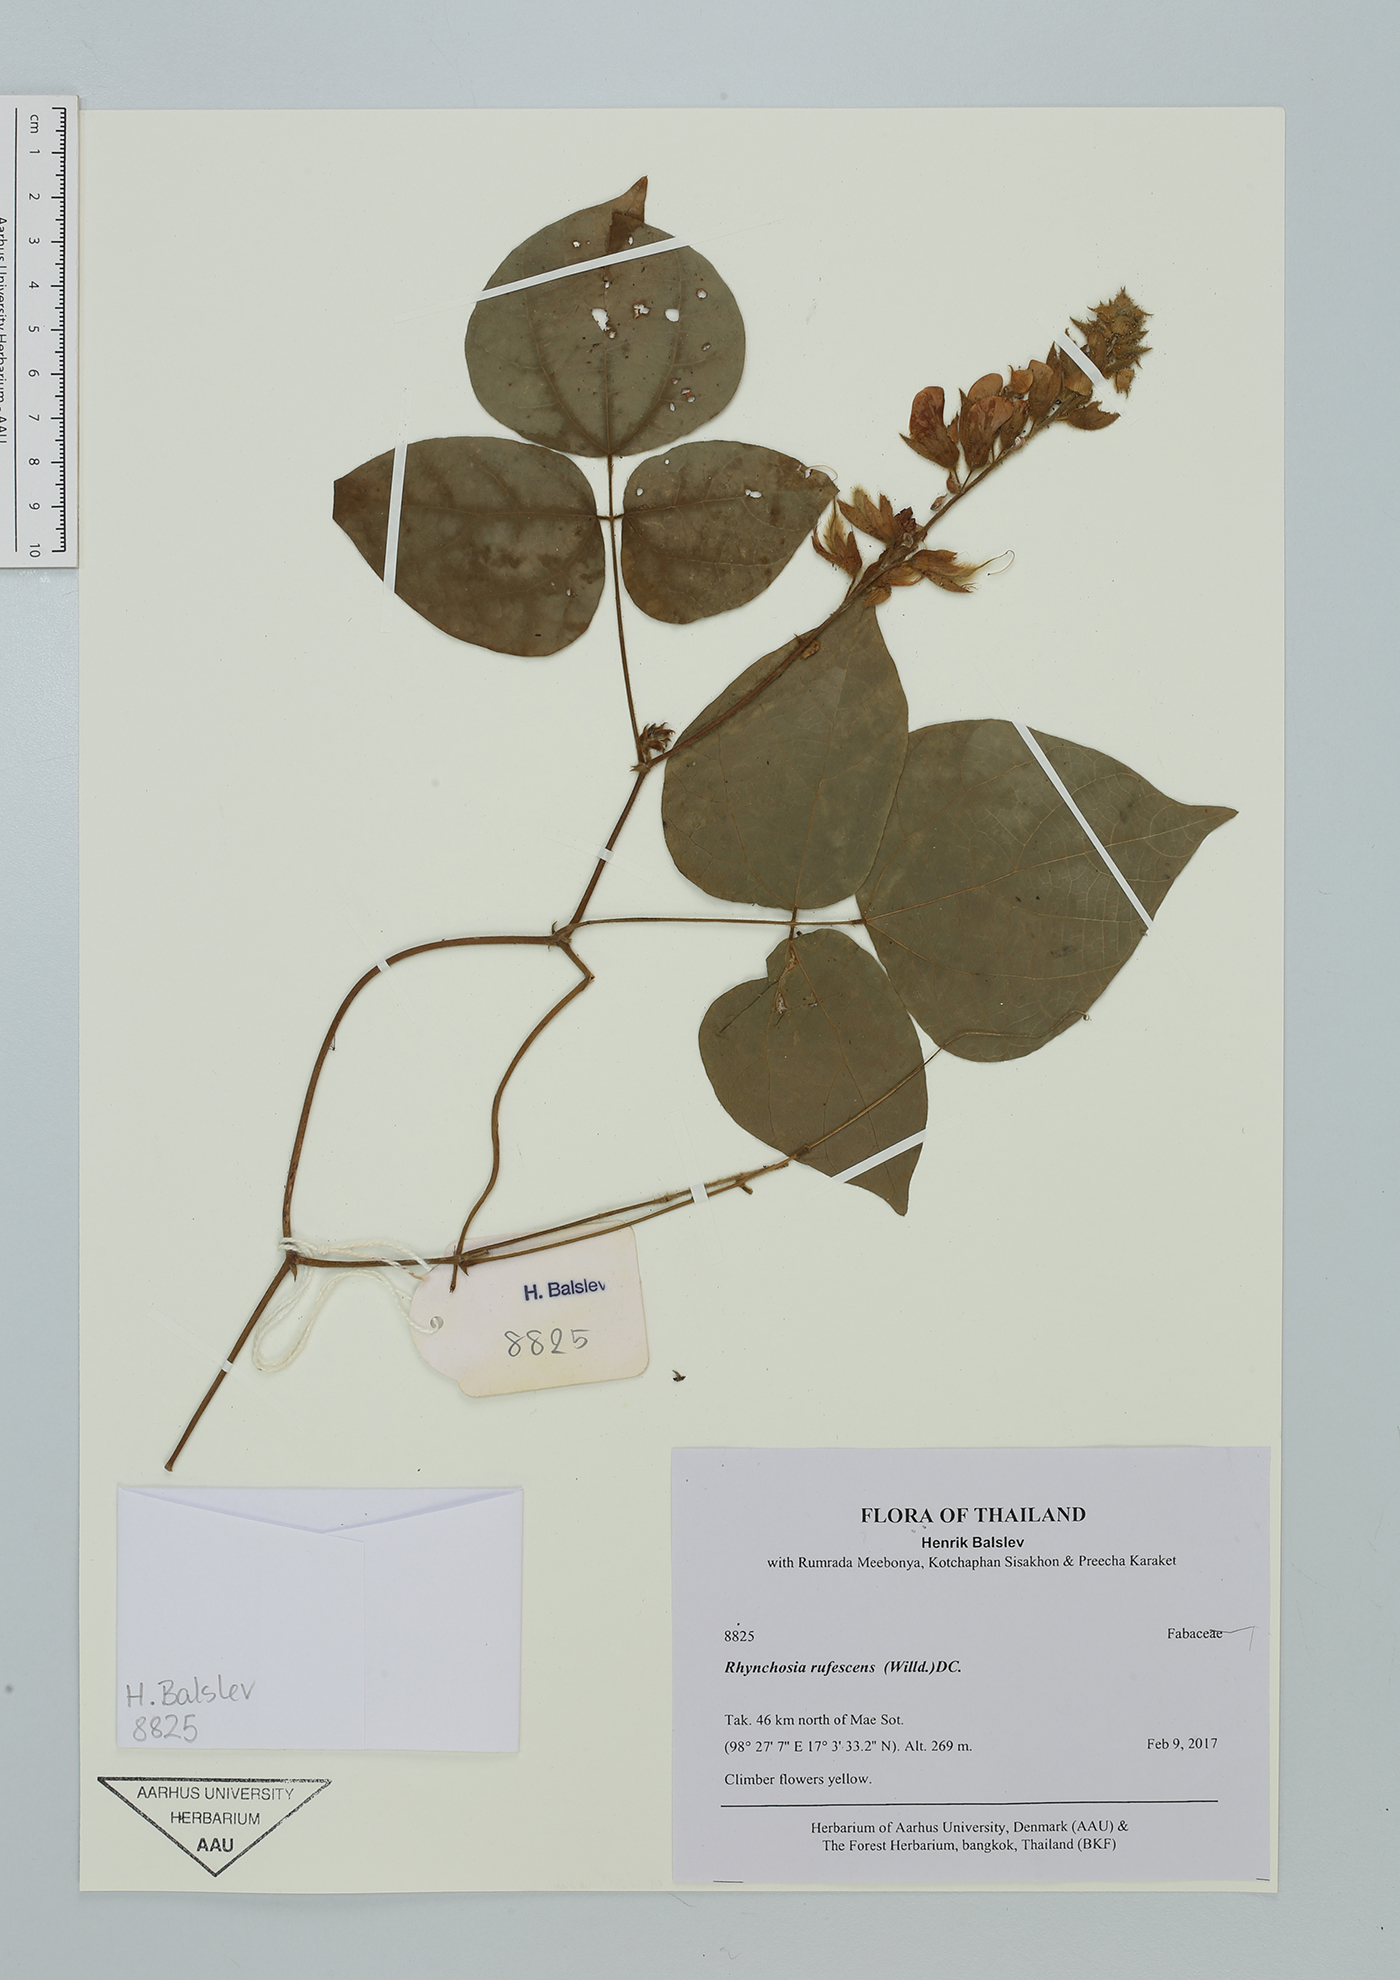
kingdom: Plantae
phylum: Tracheophyta
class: Magnoliopsida
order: Fabales
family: Fabaceae
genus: Rhynchosia
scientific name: Rhynchosia rufescens
